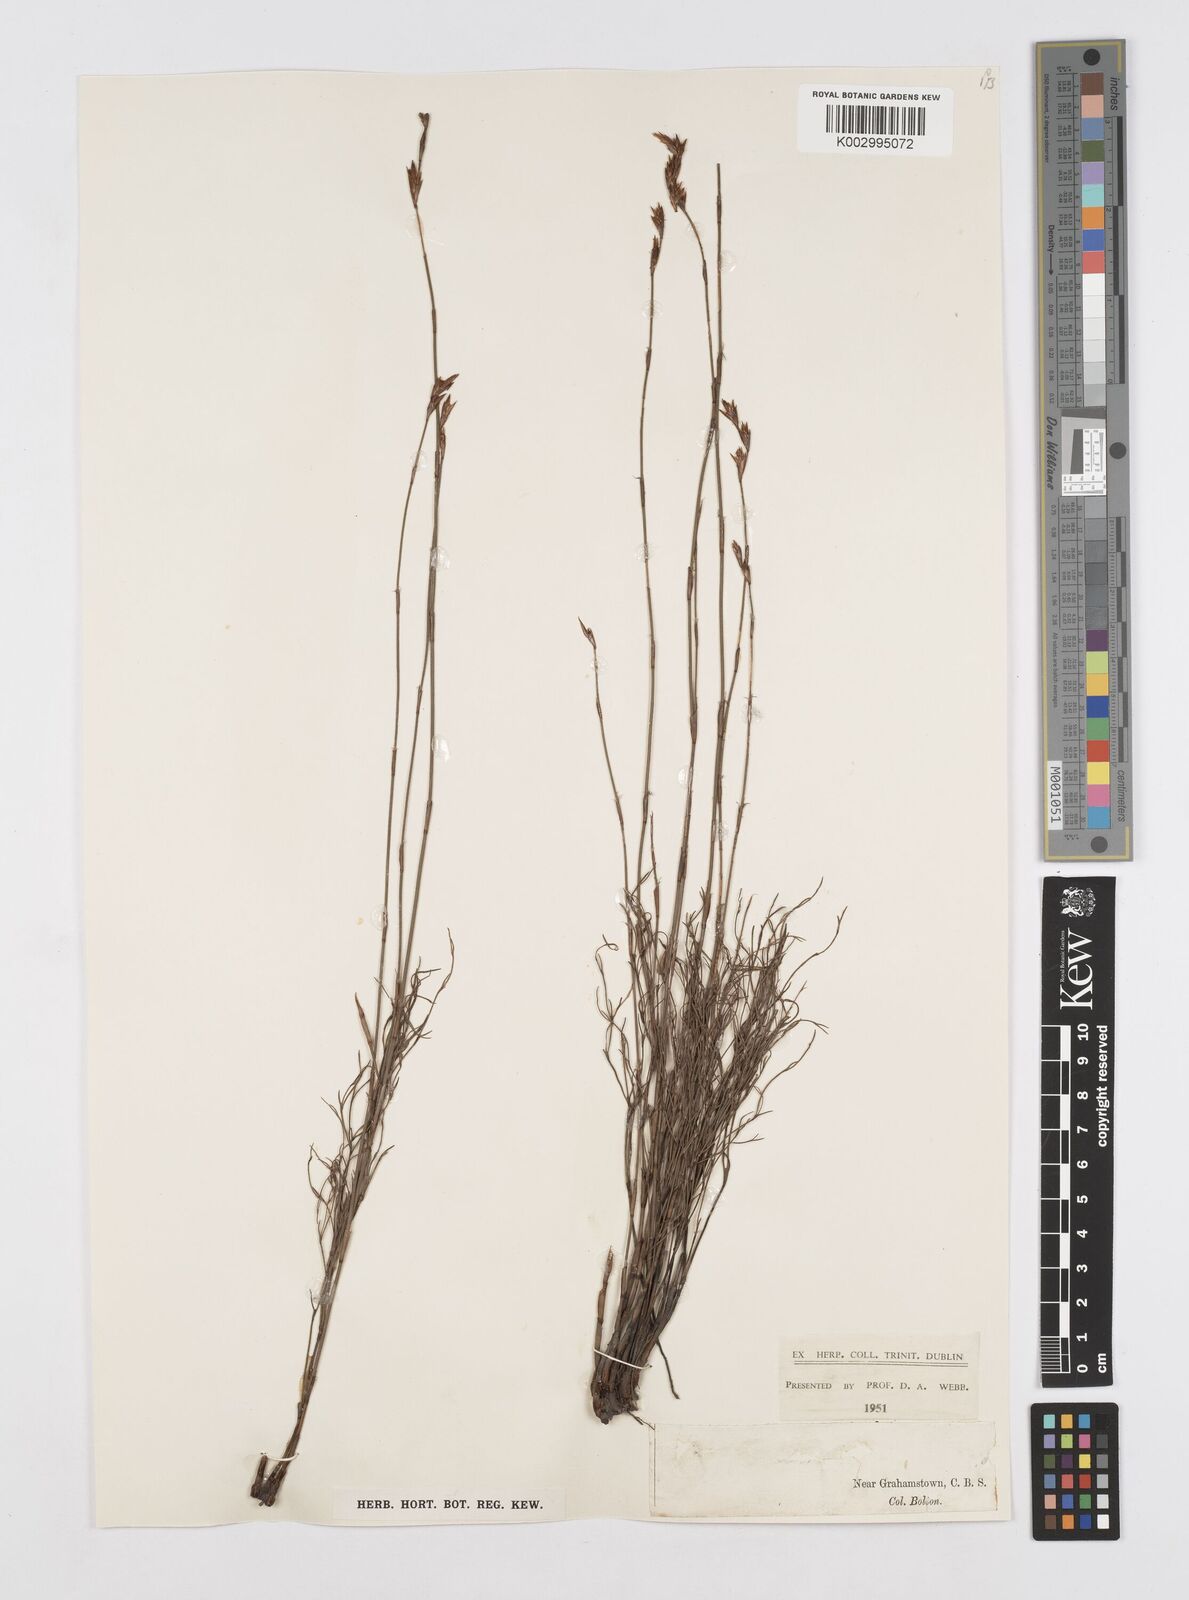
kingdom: Plantae
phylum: Tracheophyta
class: Liliopsida
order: Poales
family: Restionaceae
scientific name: Restionaceae
